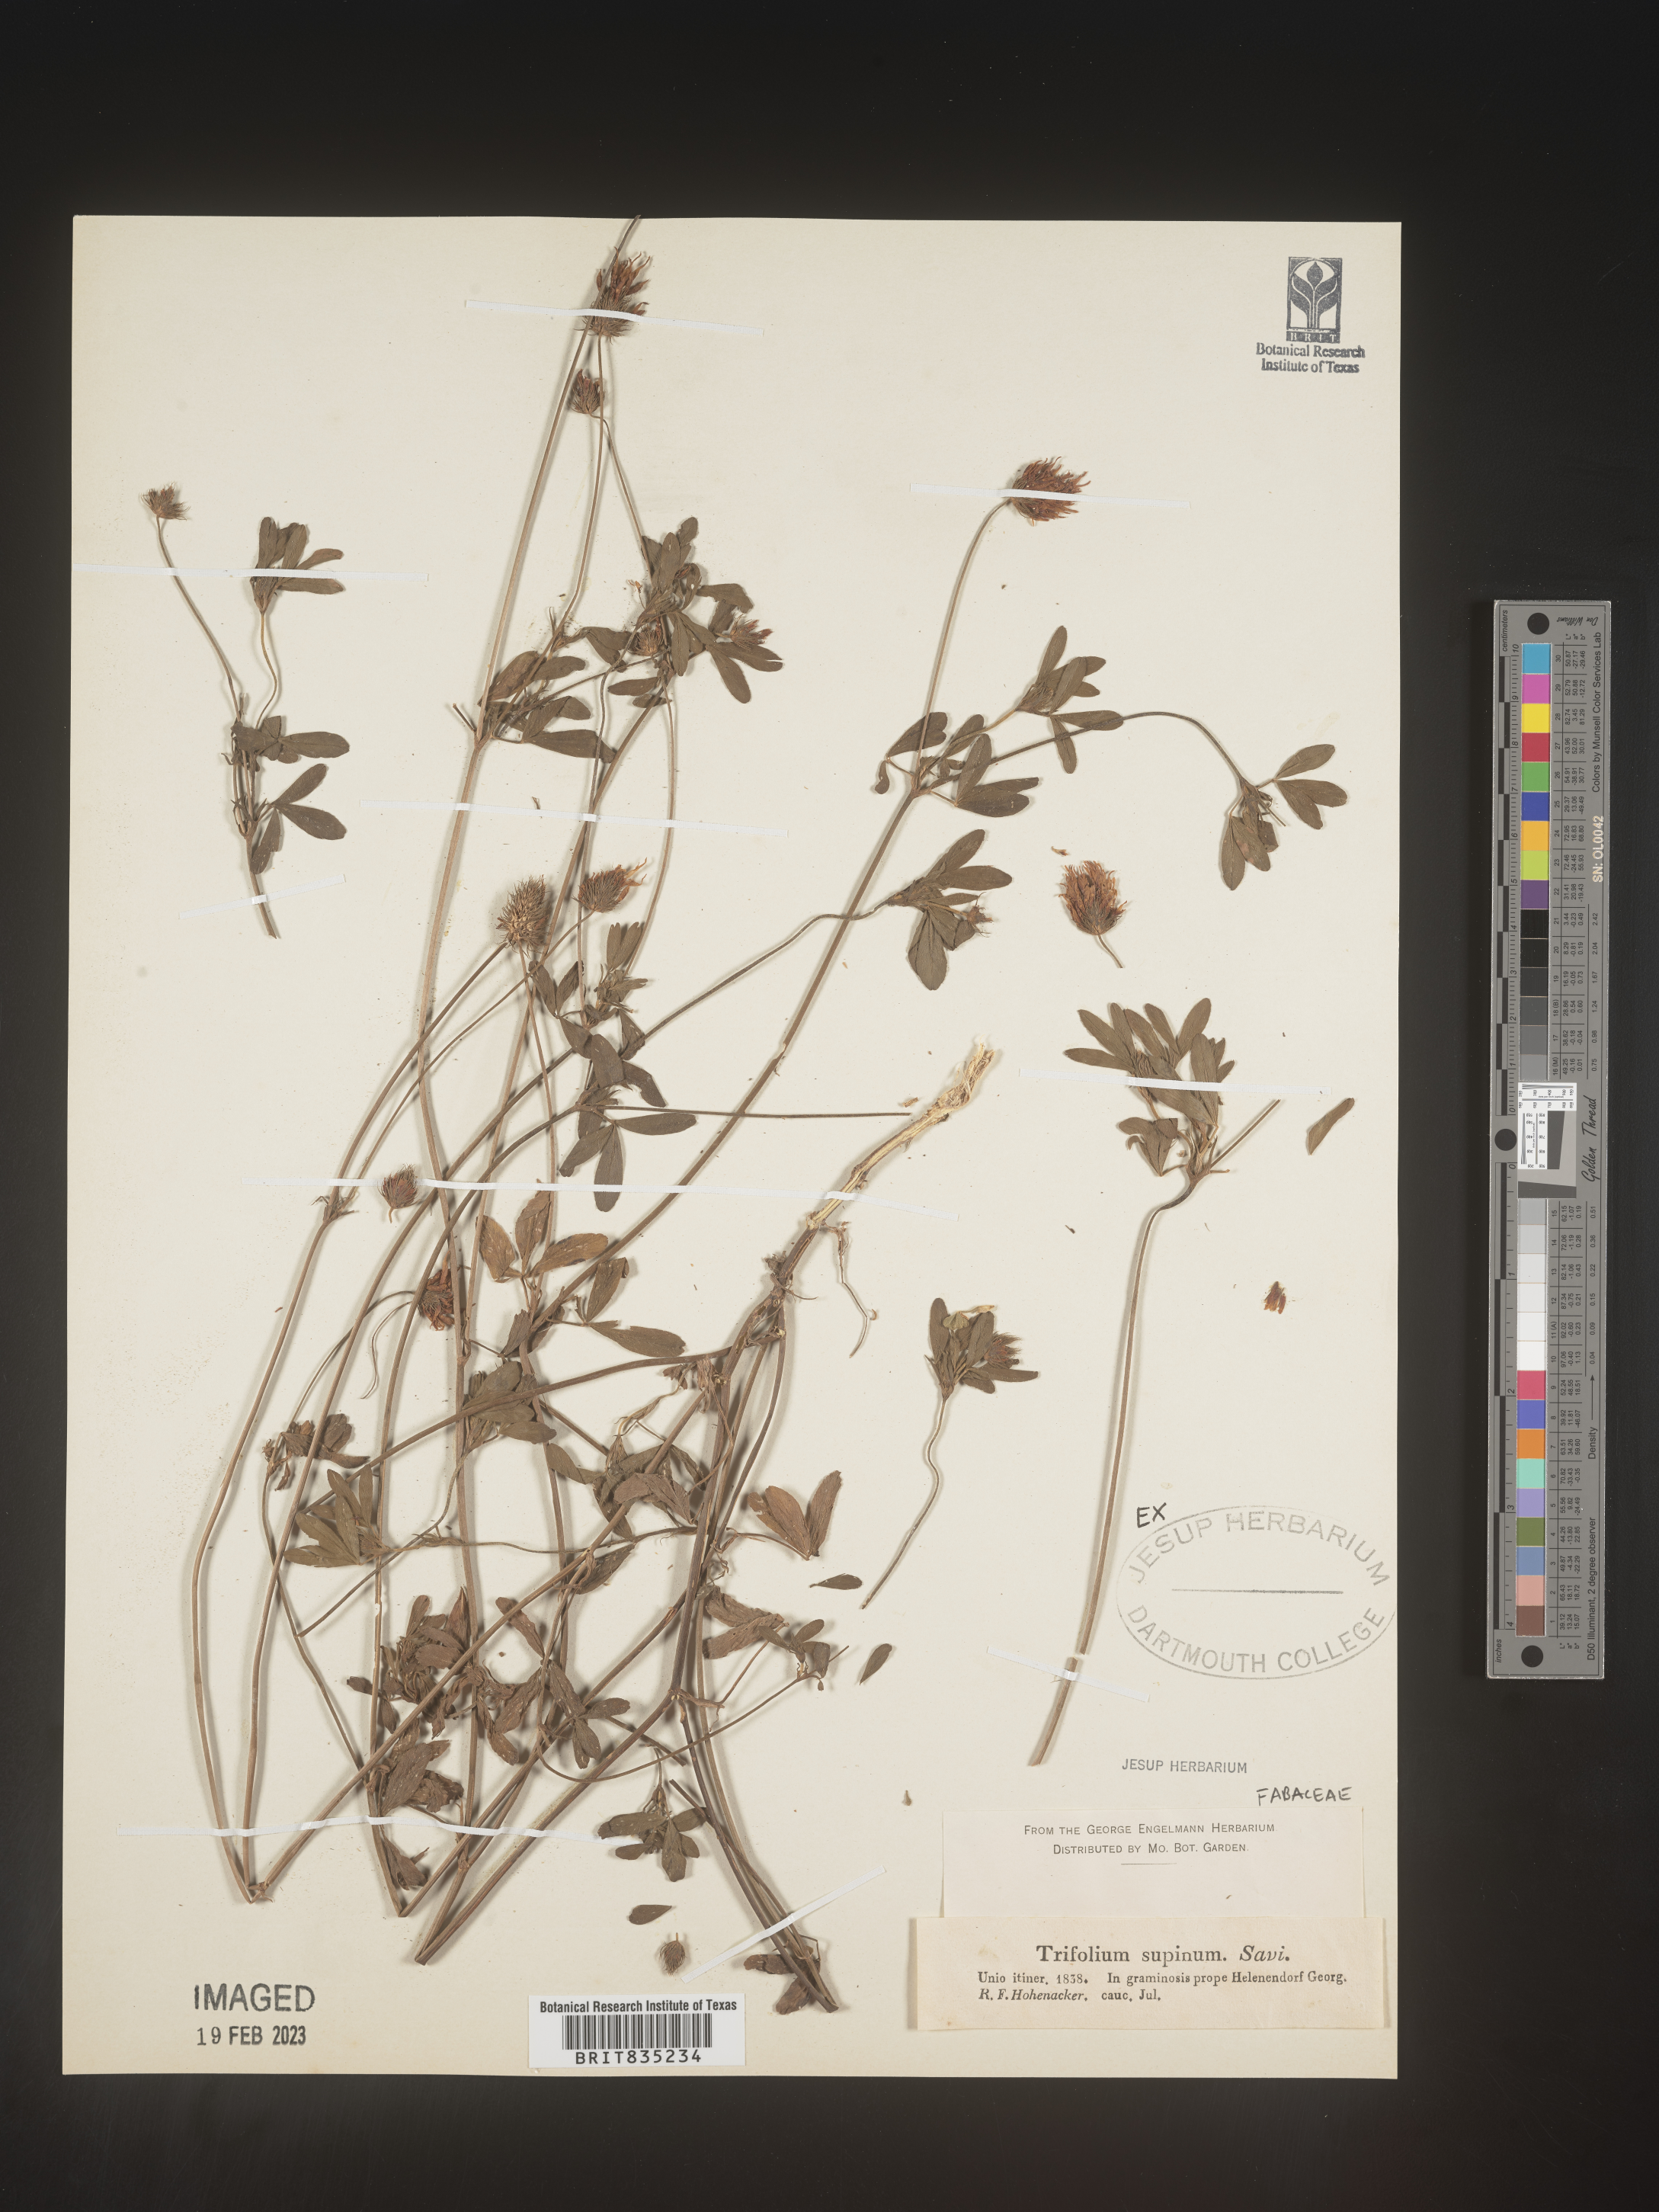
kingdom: Plantae
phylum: Tracheophyta
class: Magnoliopsida
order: Fabales
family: Fabaceae
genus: Trifolium
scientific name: Trifolium
